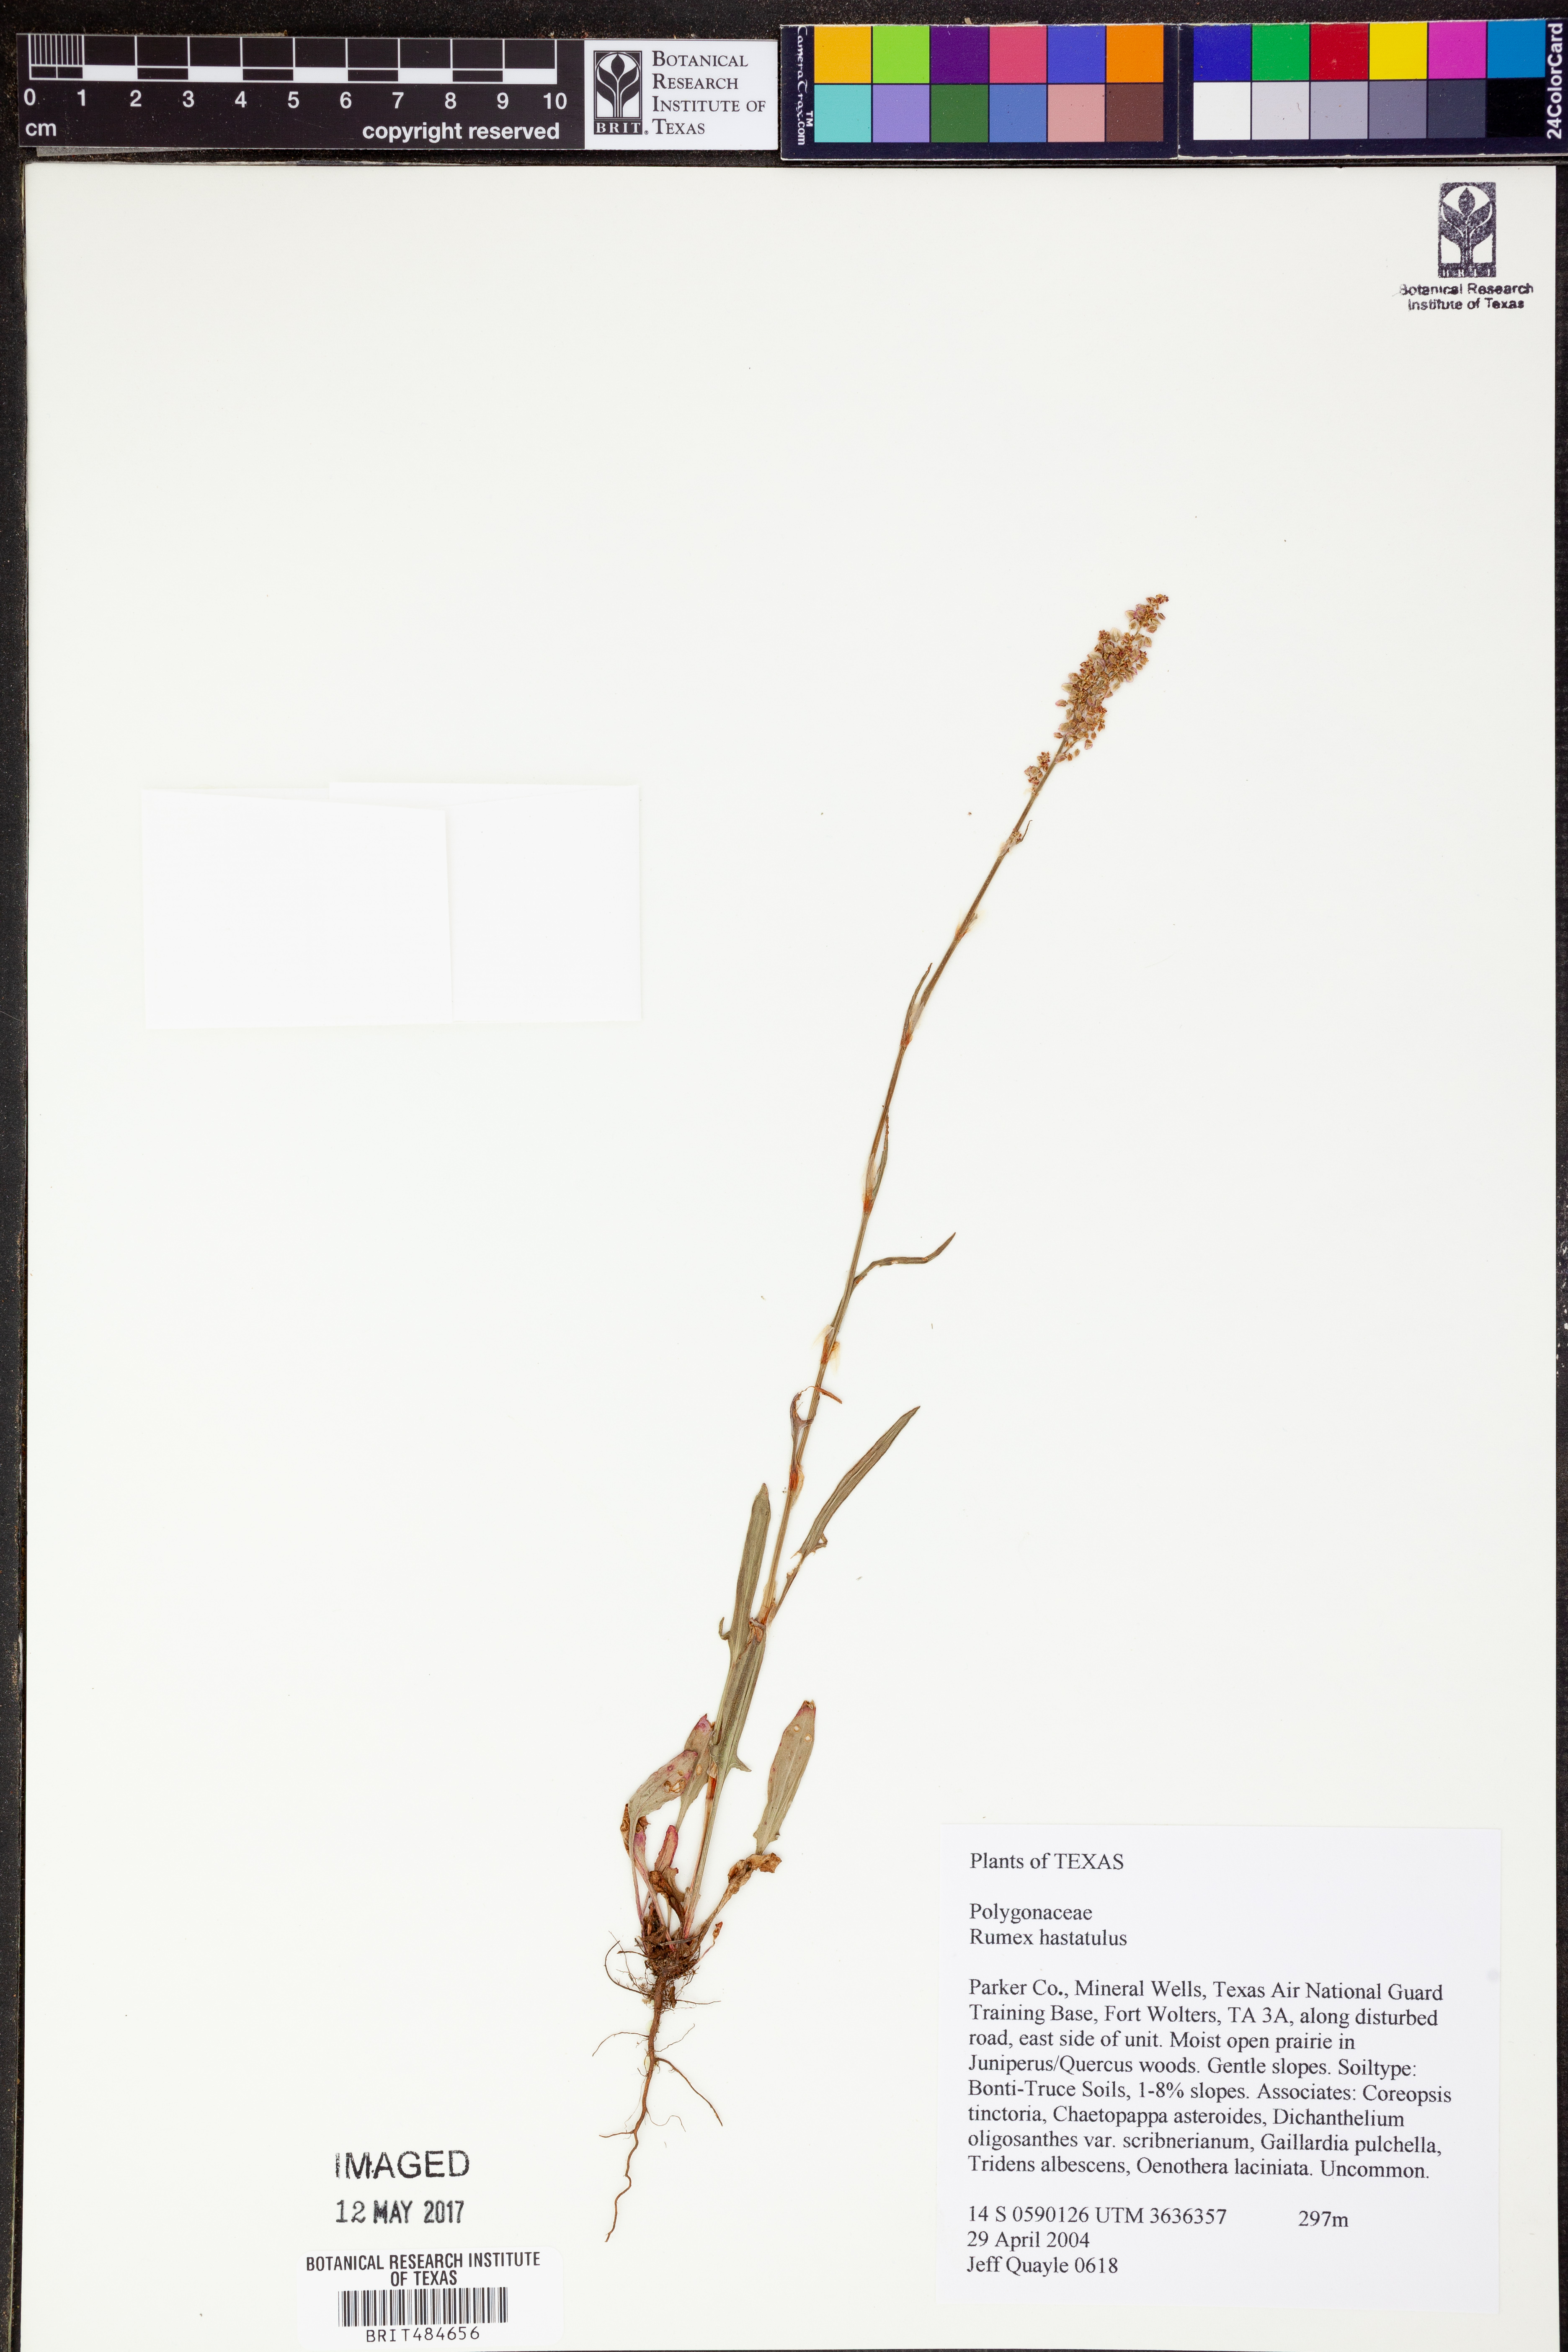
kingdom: Plantae
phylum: Tracheophyta
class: Magnoliopsida
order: Caryophyllales
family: Polygonaceae
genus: Rumex
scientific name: Rumex hastatulus
